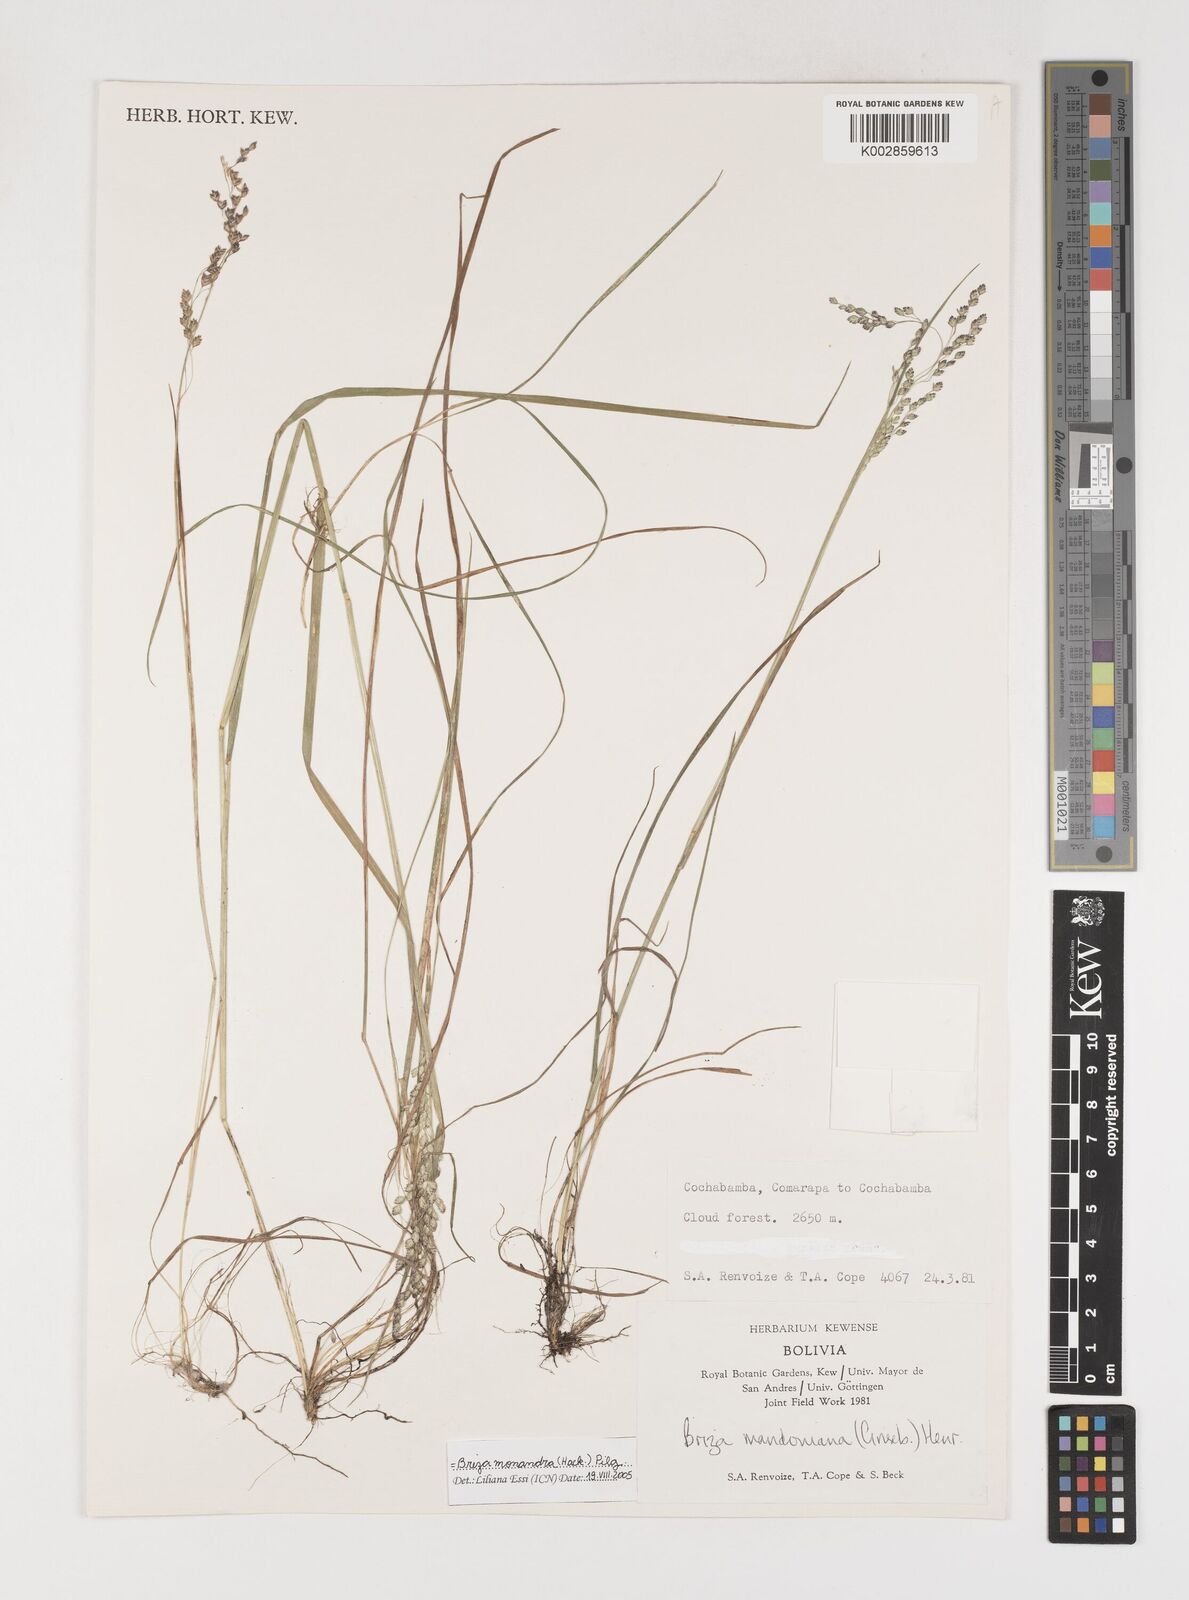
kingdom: Plantae
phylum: Tracheophyta
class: Liliopsida
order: Poales
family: Poaceae
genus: Poidium
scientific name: Poidium monandrum
